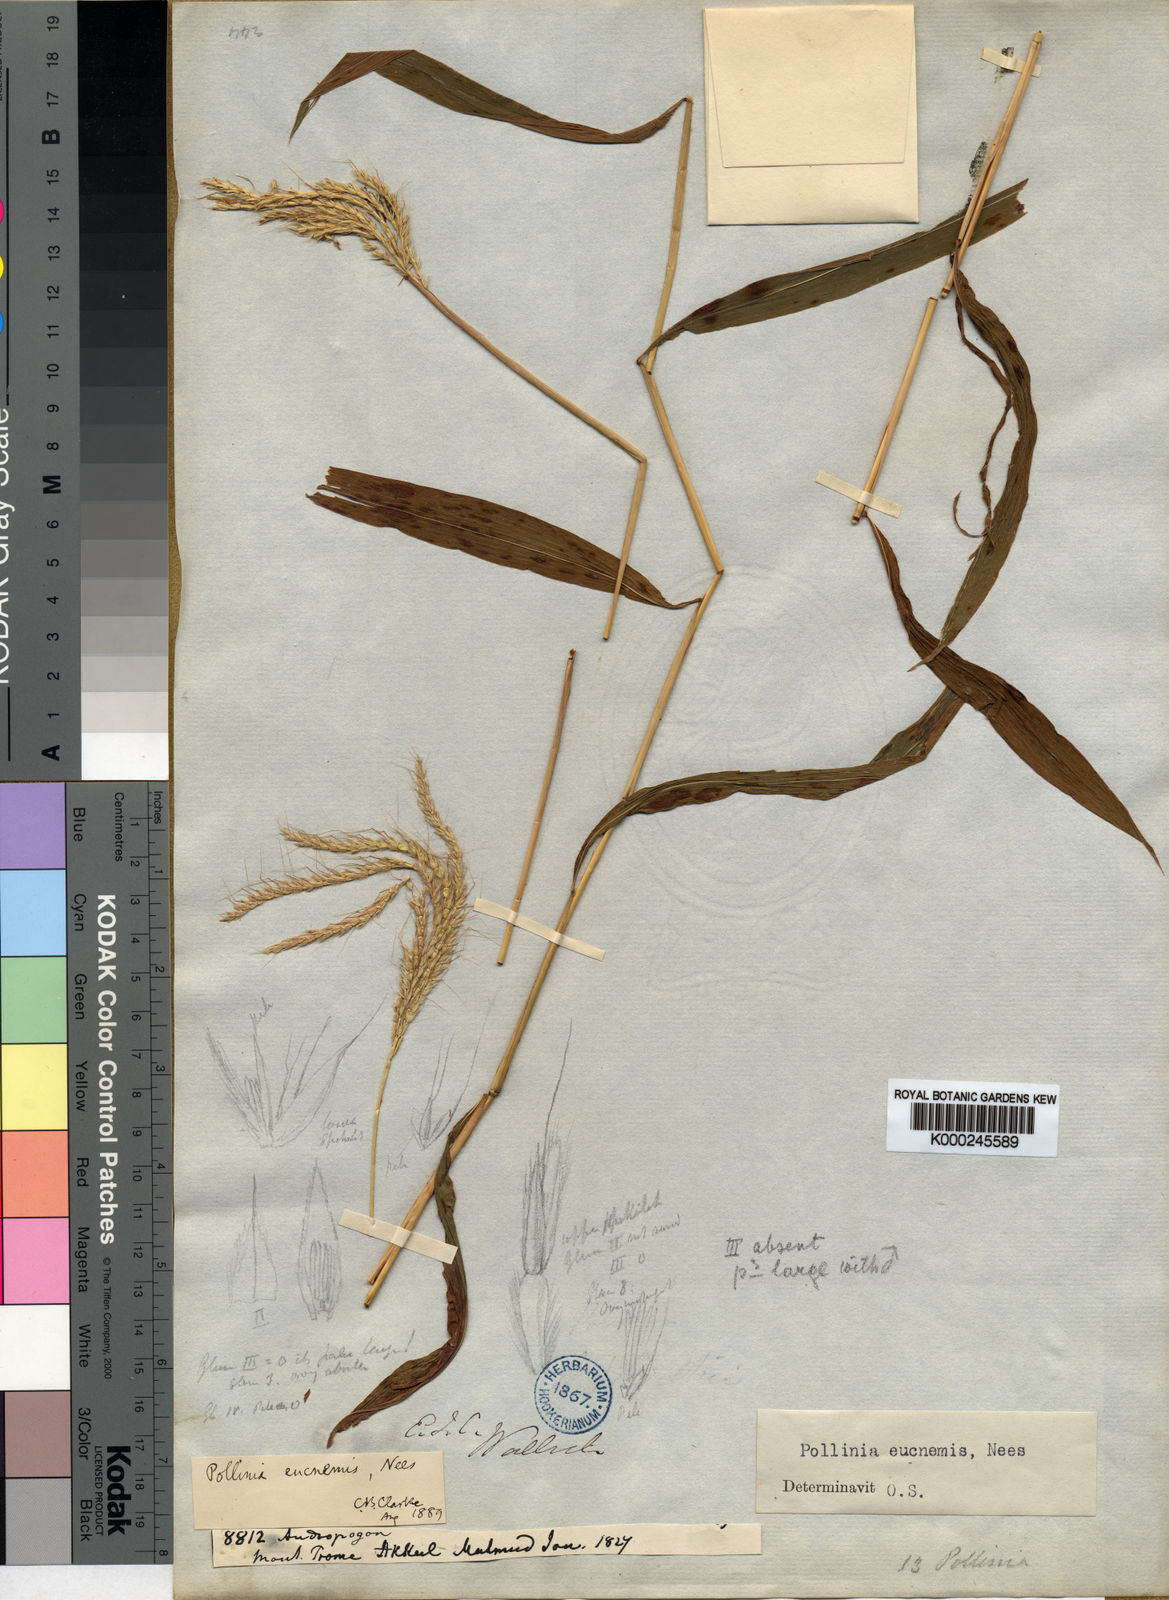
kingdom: Plantae
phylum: Tracheophyta
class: Liliopsida
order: Poales
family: Poaceae
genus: Microstegium
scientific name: Microstegium eucnemis
